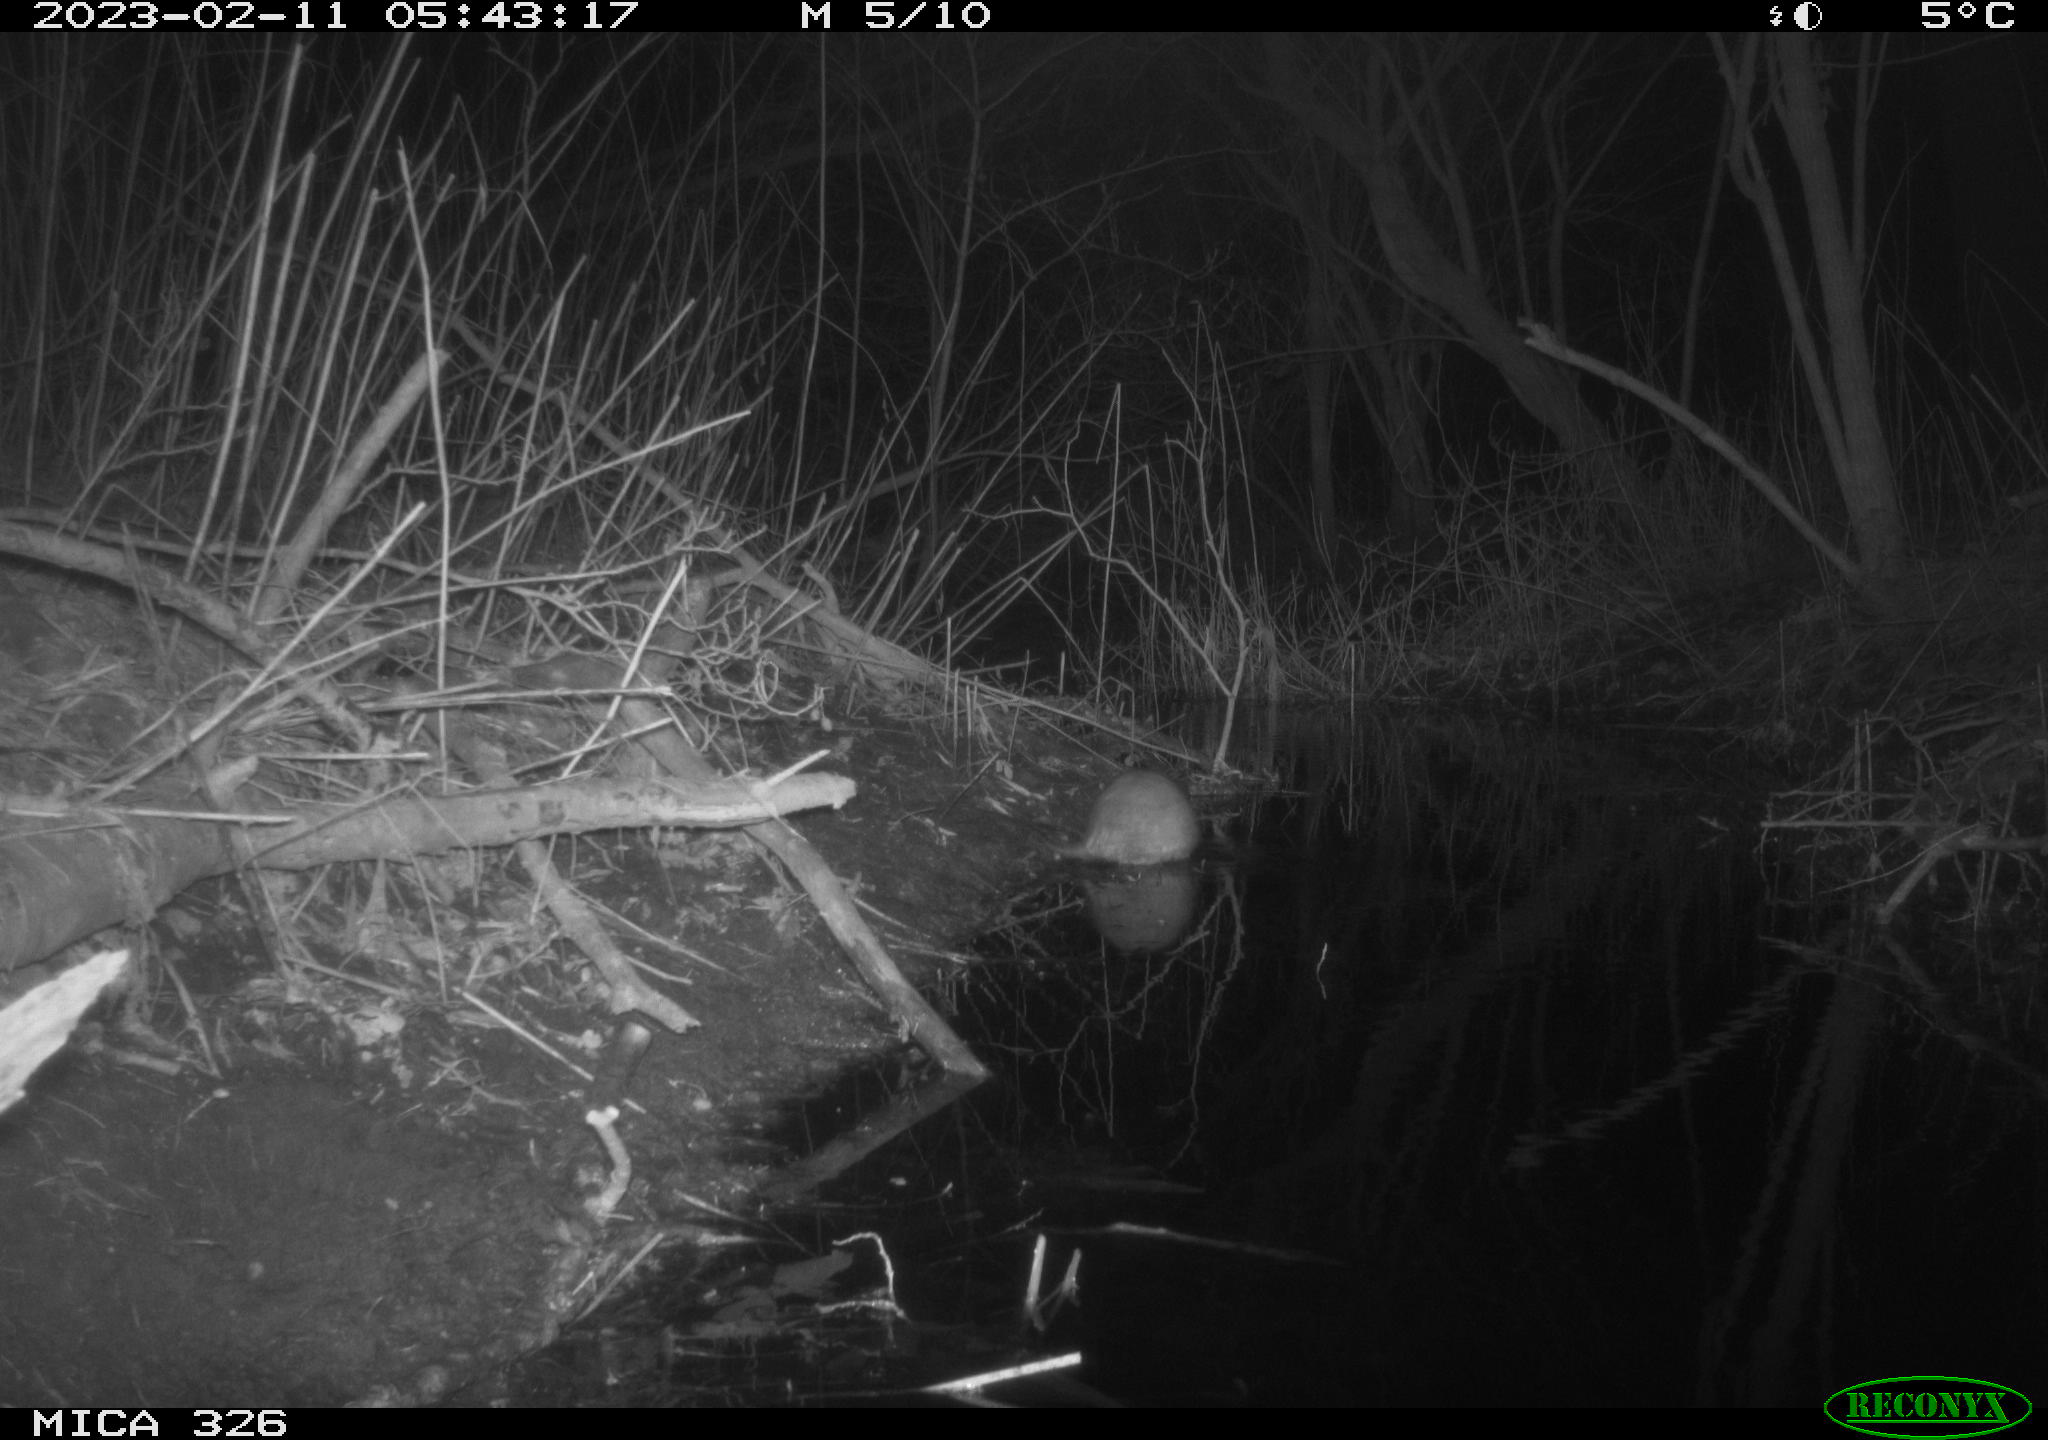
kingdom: Animalia
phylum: Chordata
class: Mammalia
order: Rodentia
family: Cricetidae
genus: Ondatra
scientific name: Ondatra zibethicus
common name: Muskrat
